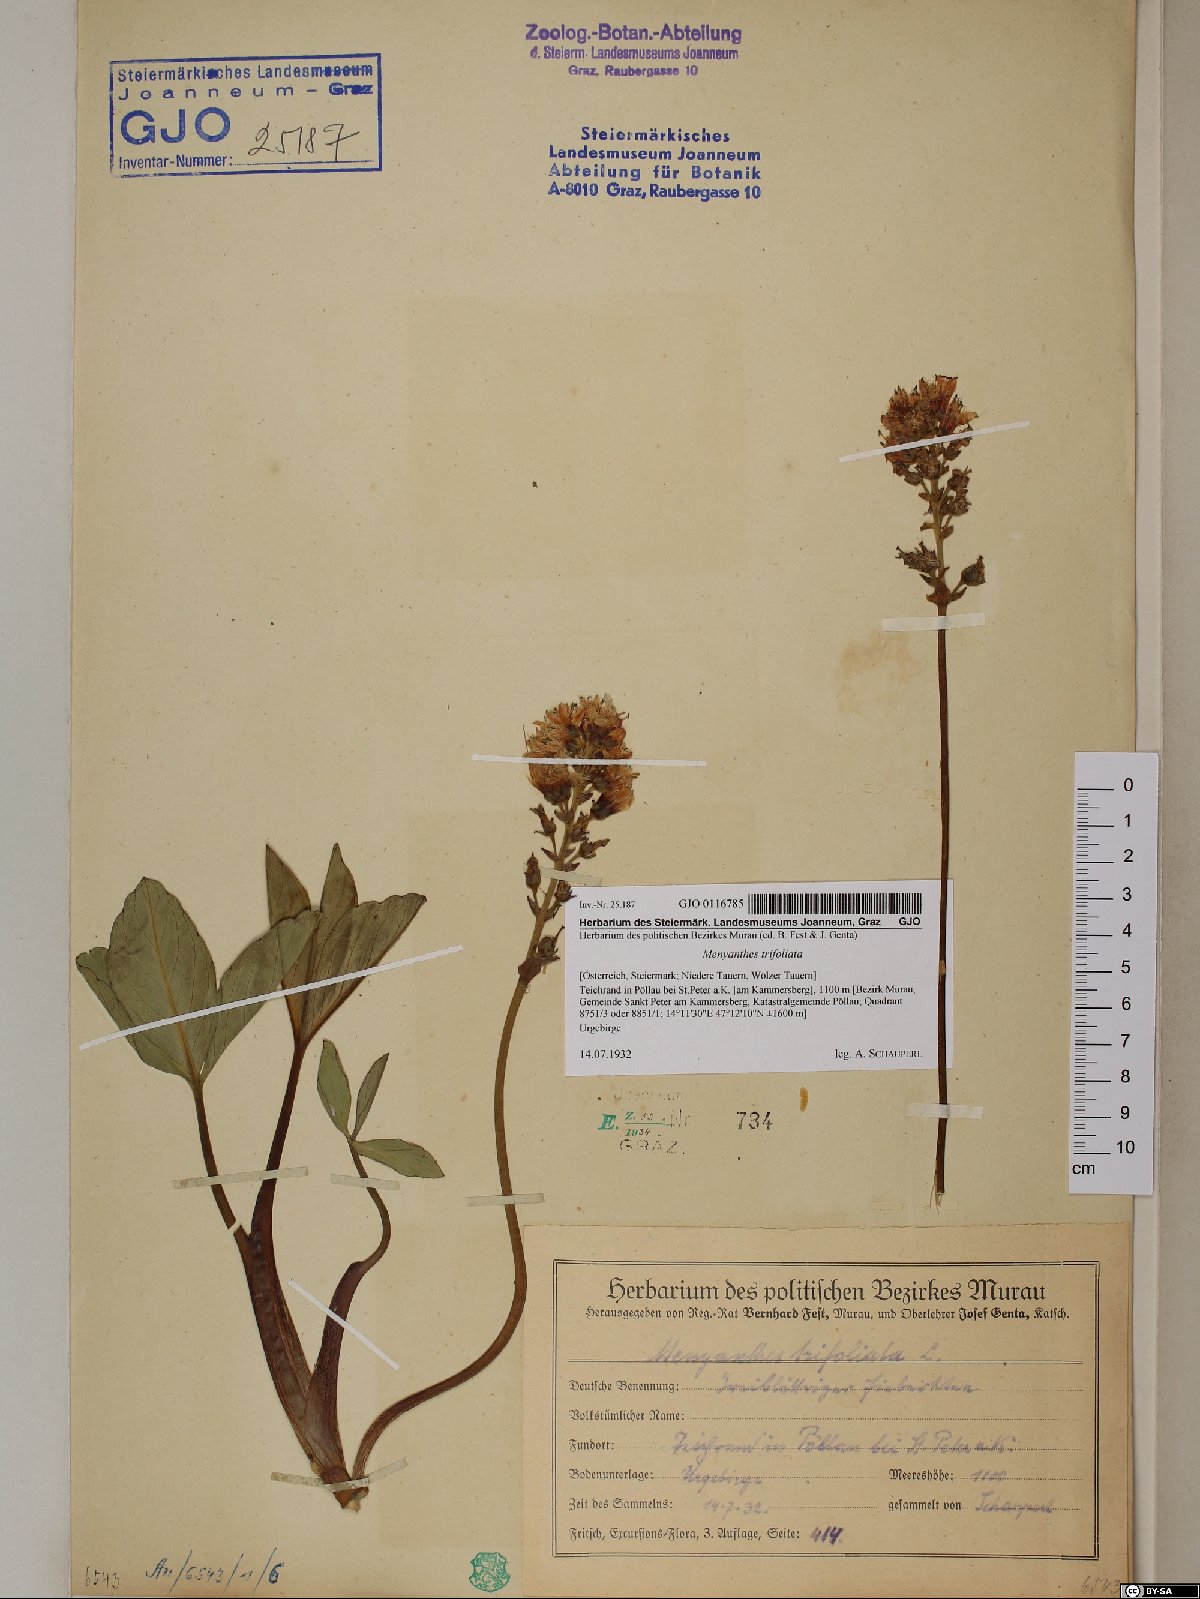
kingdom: Plantae
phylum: Tracheophyta
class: Magnoliopsida
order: Asterales
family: Menyanthaceae
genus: Menyanthes
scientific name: Menyanthes trifoliata
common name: Bogbean
